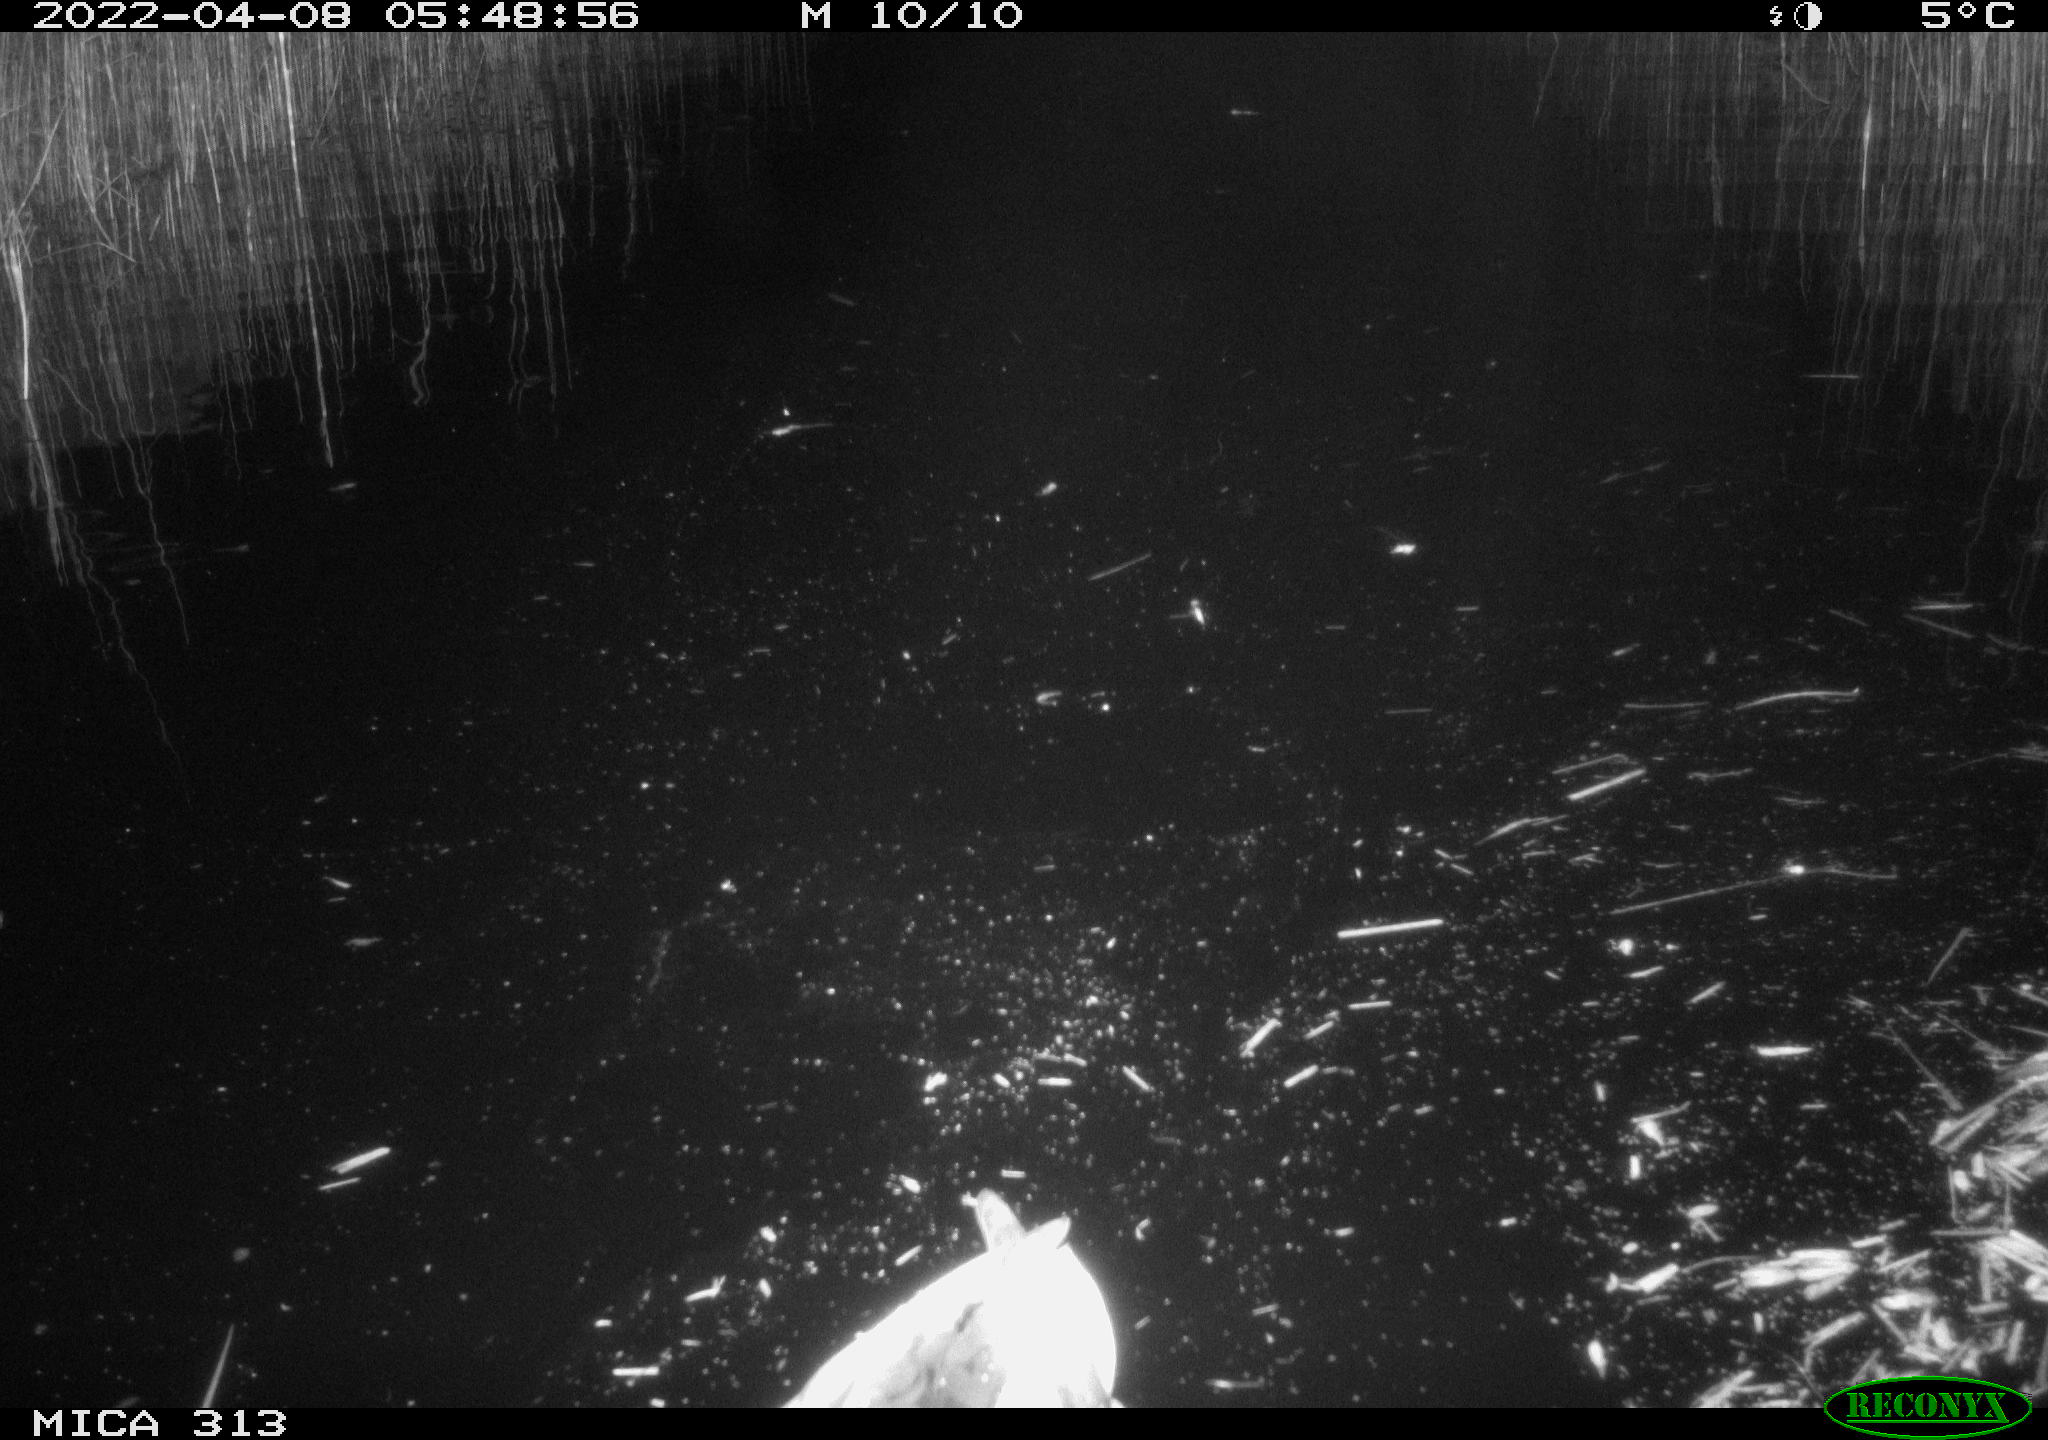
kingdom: Animalia
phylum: Chordata
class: Aves
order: Gruiformes
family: Rallidae
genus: Fulica
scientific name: Fulica atra
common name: Eurasian coot
